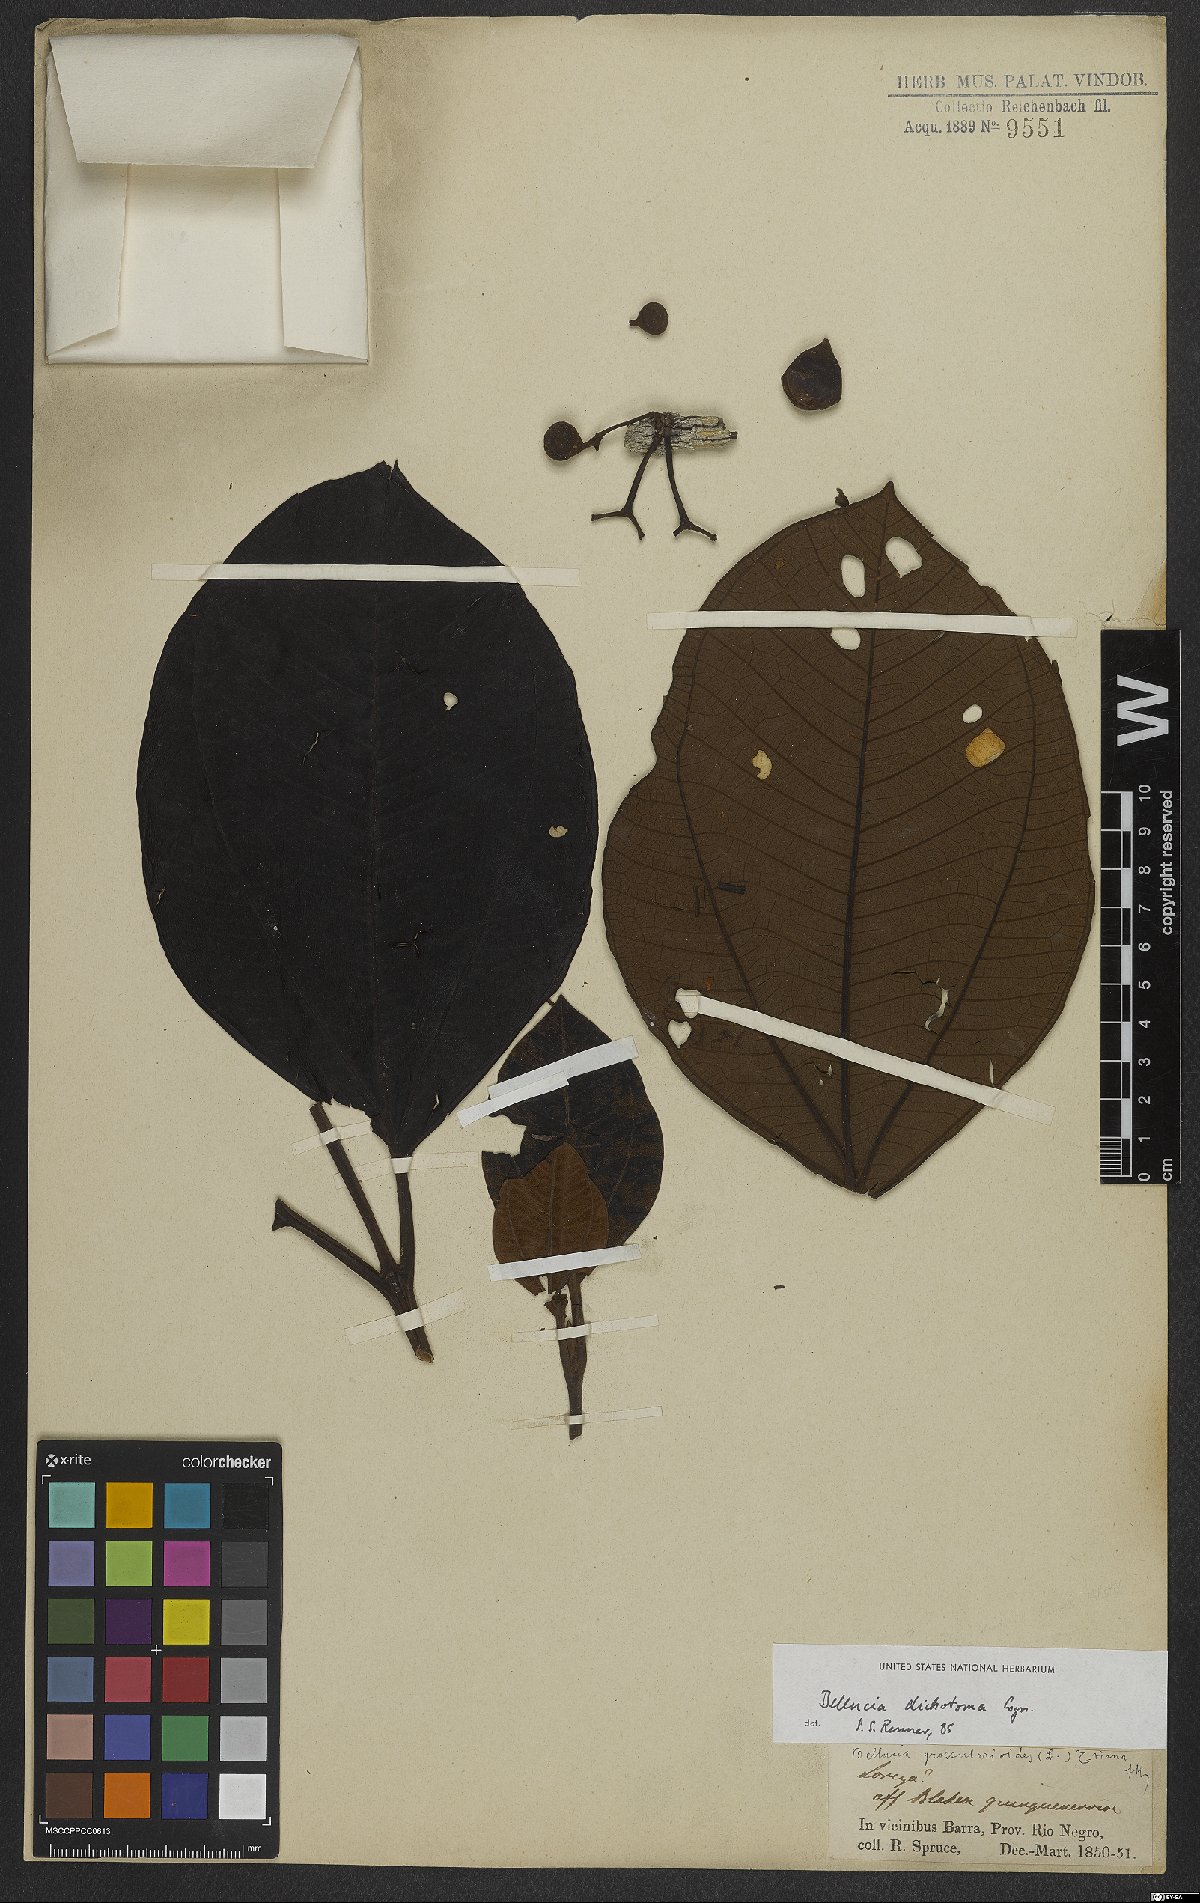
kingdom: Plantae
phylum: Tracheophyta
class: Magnoliopsida
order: Myrtales
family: Melastomataceae
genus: Bellucia
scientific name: Bellucia imperialis
